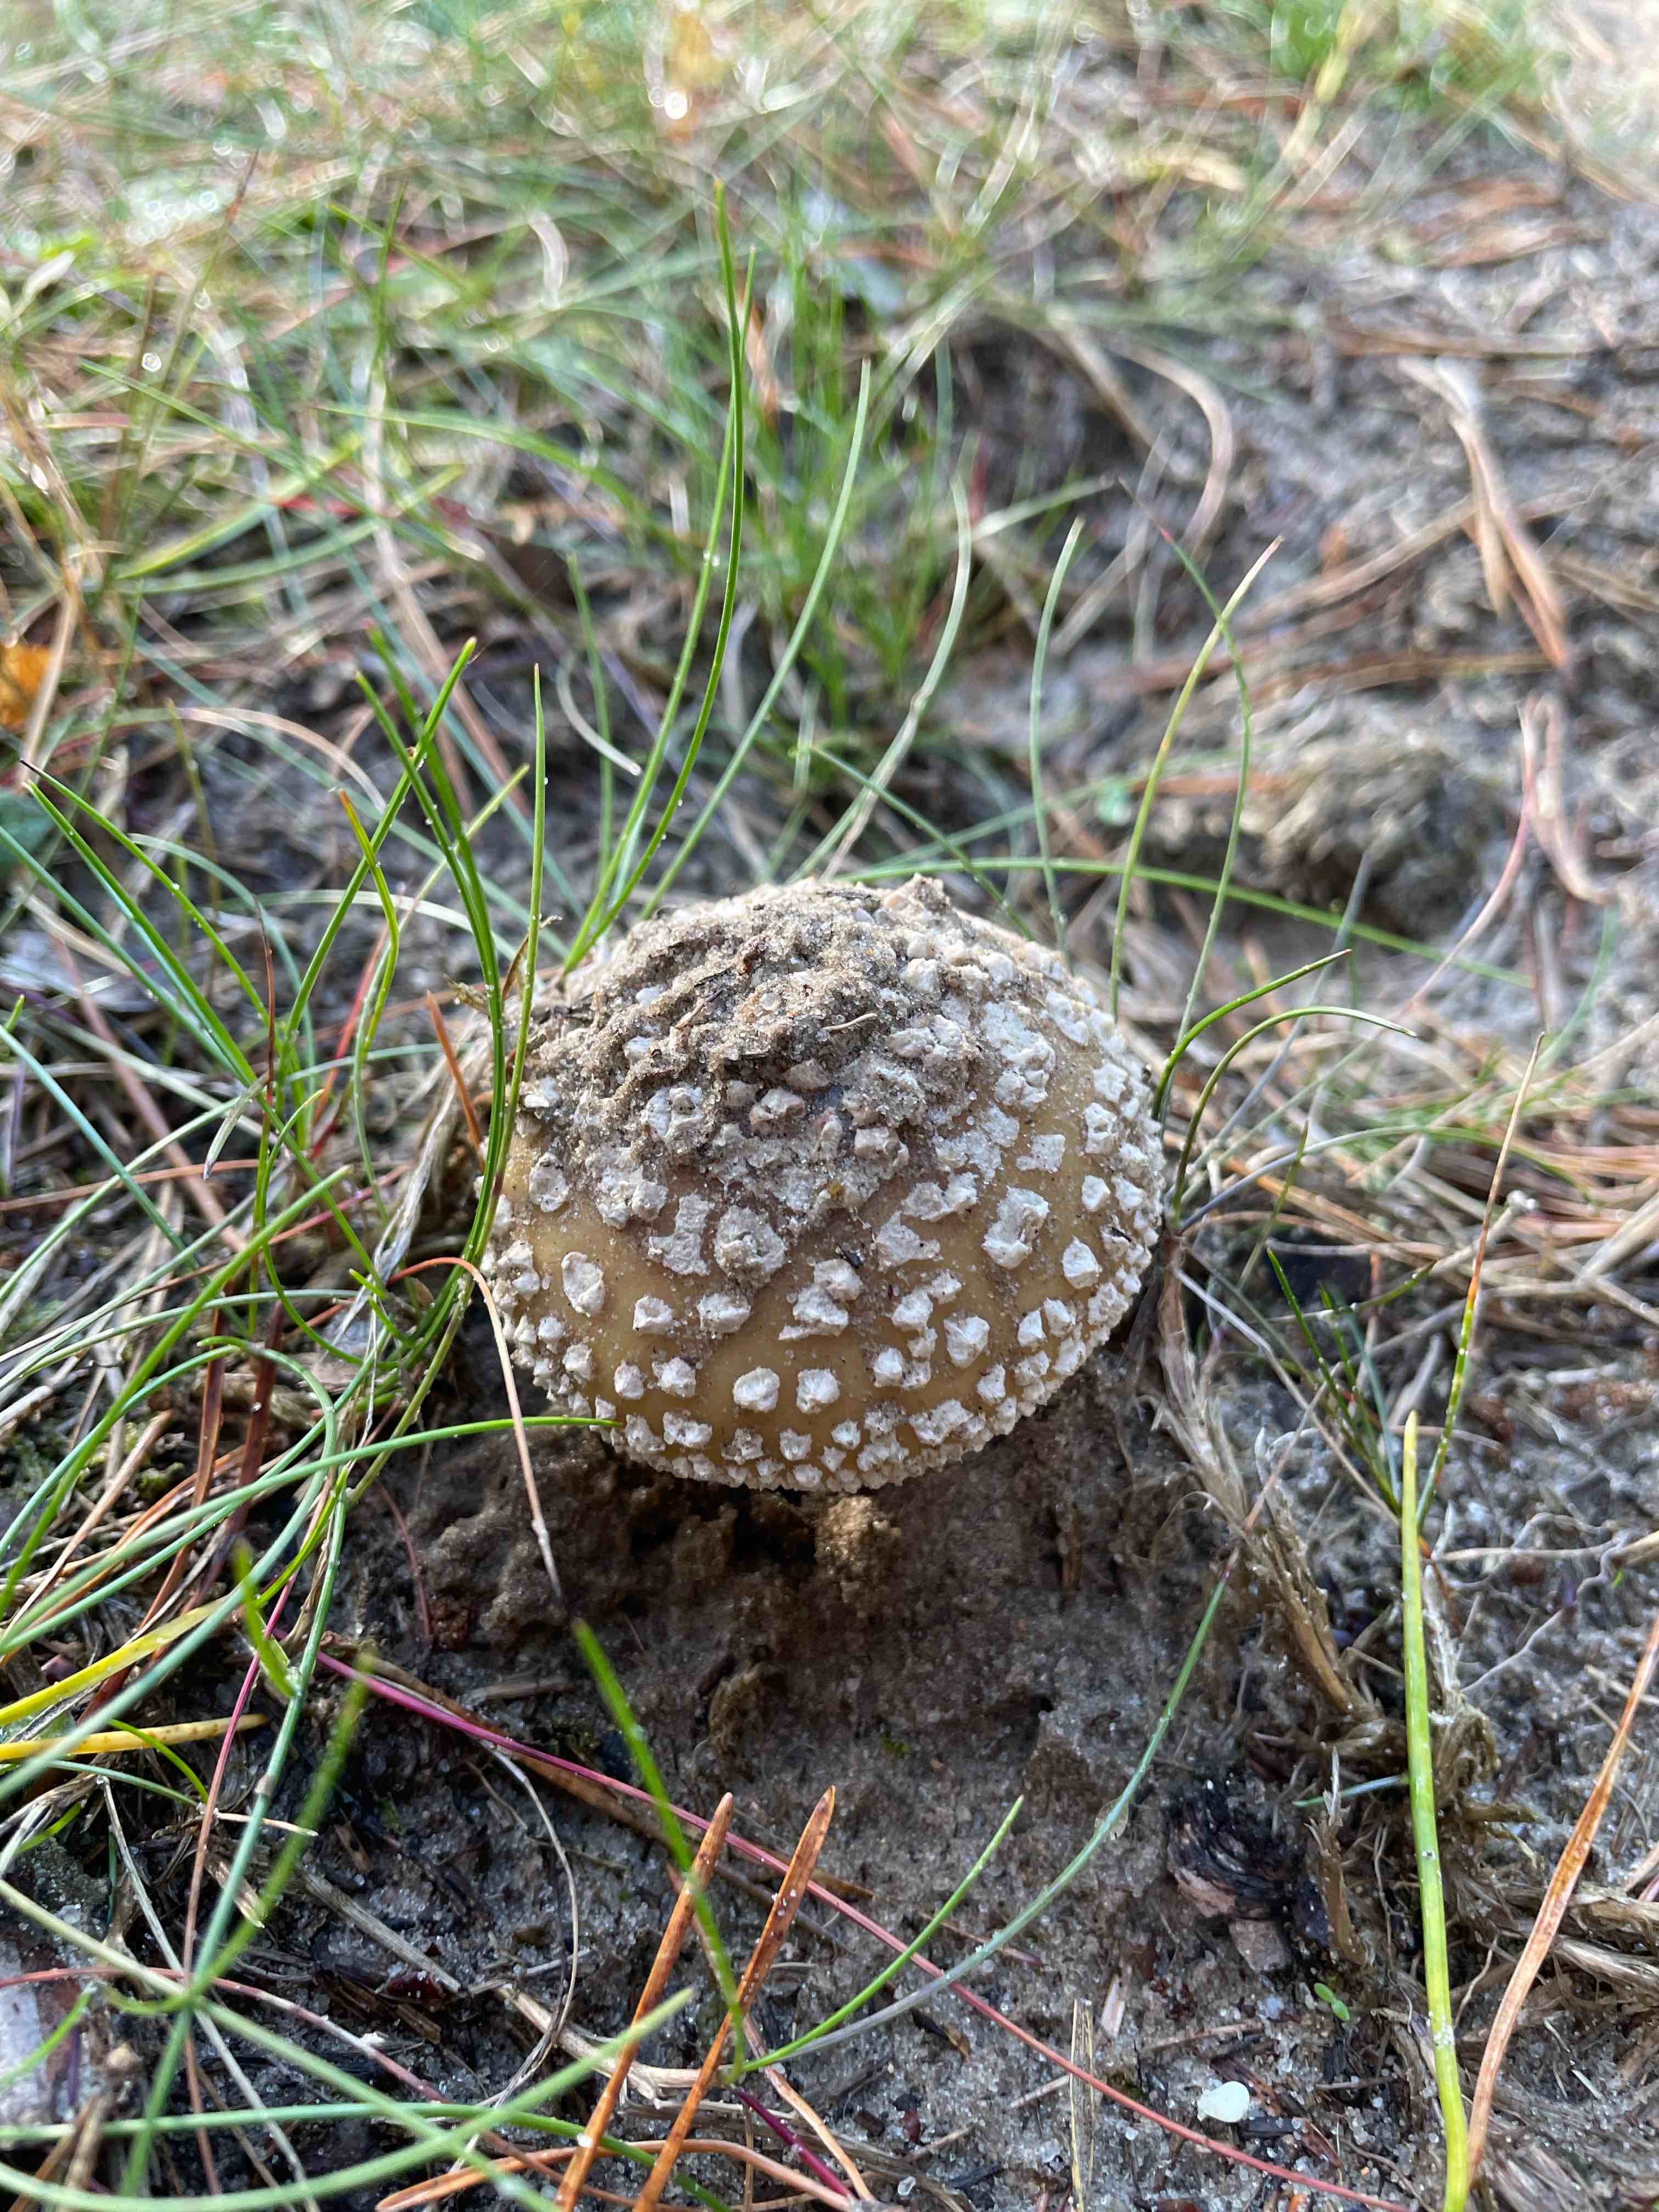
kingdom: Fungi
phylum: Basidiomycota
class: Agaricomycetes
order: Agaricales
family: Amanitaceae
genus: Amanita
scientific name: Amanita
